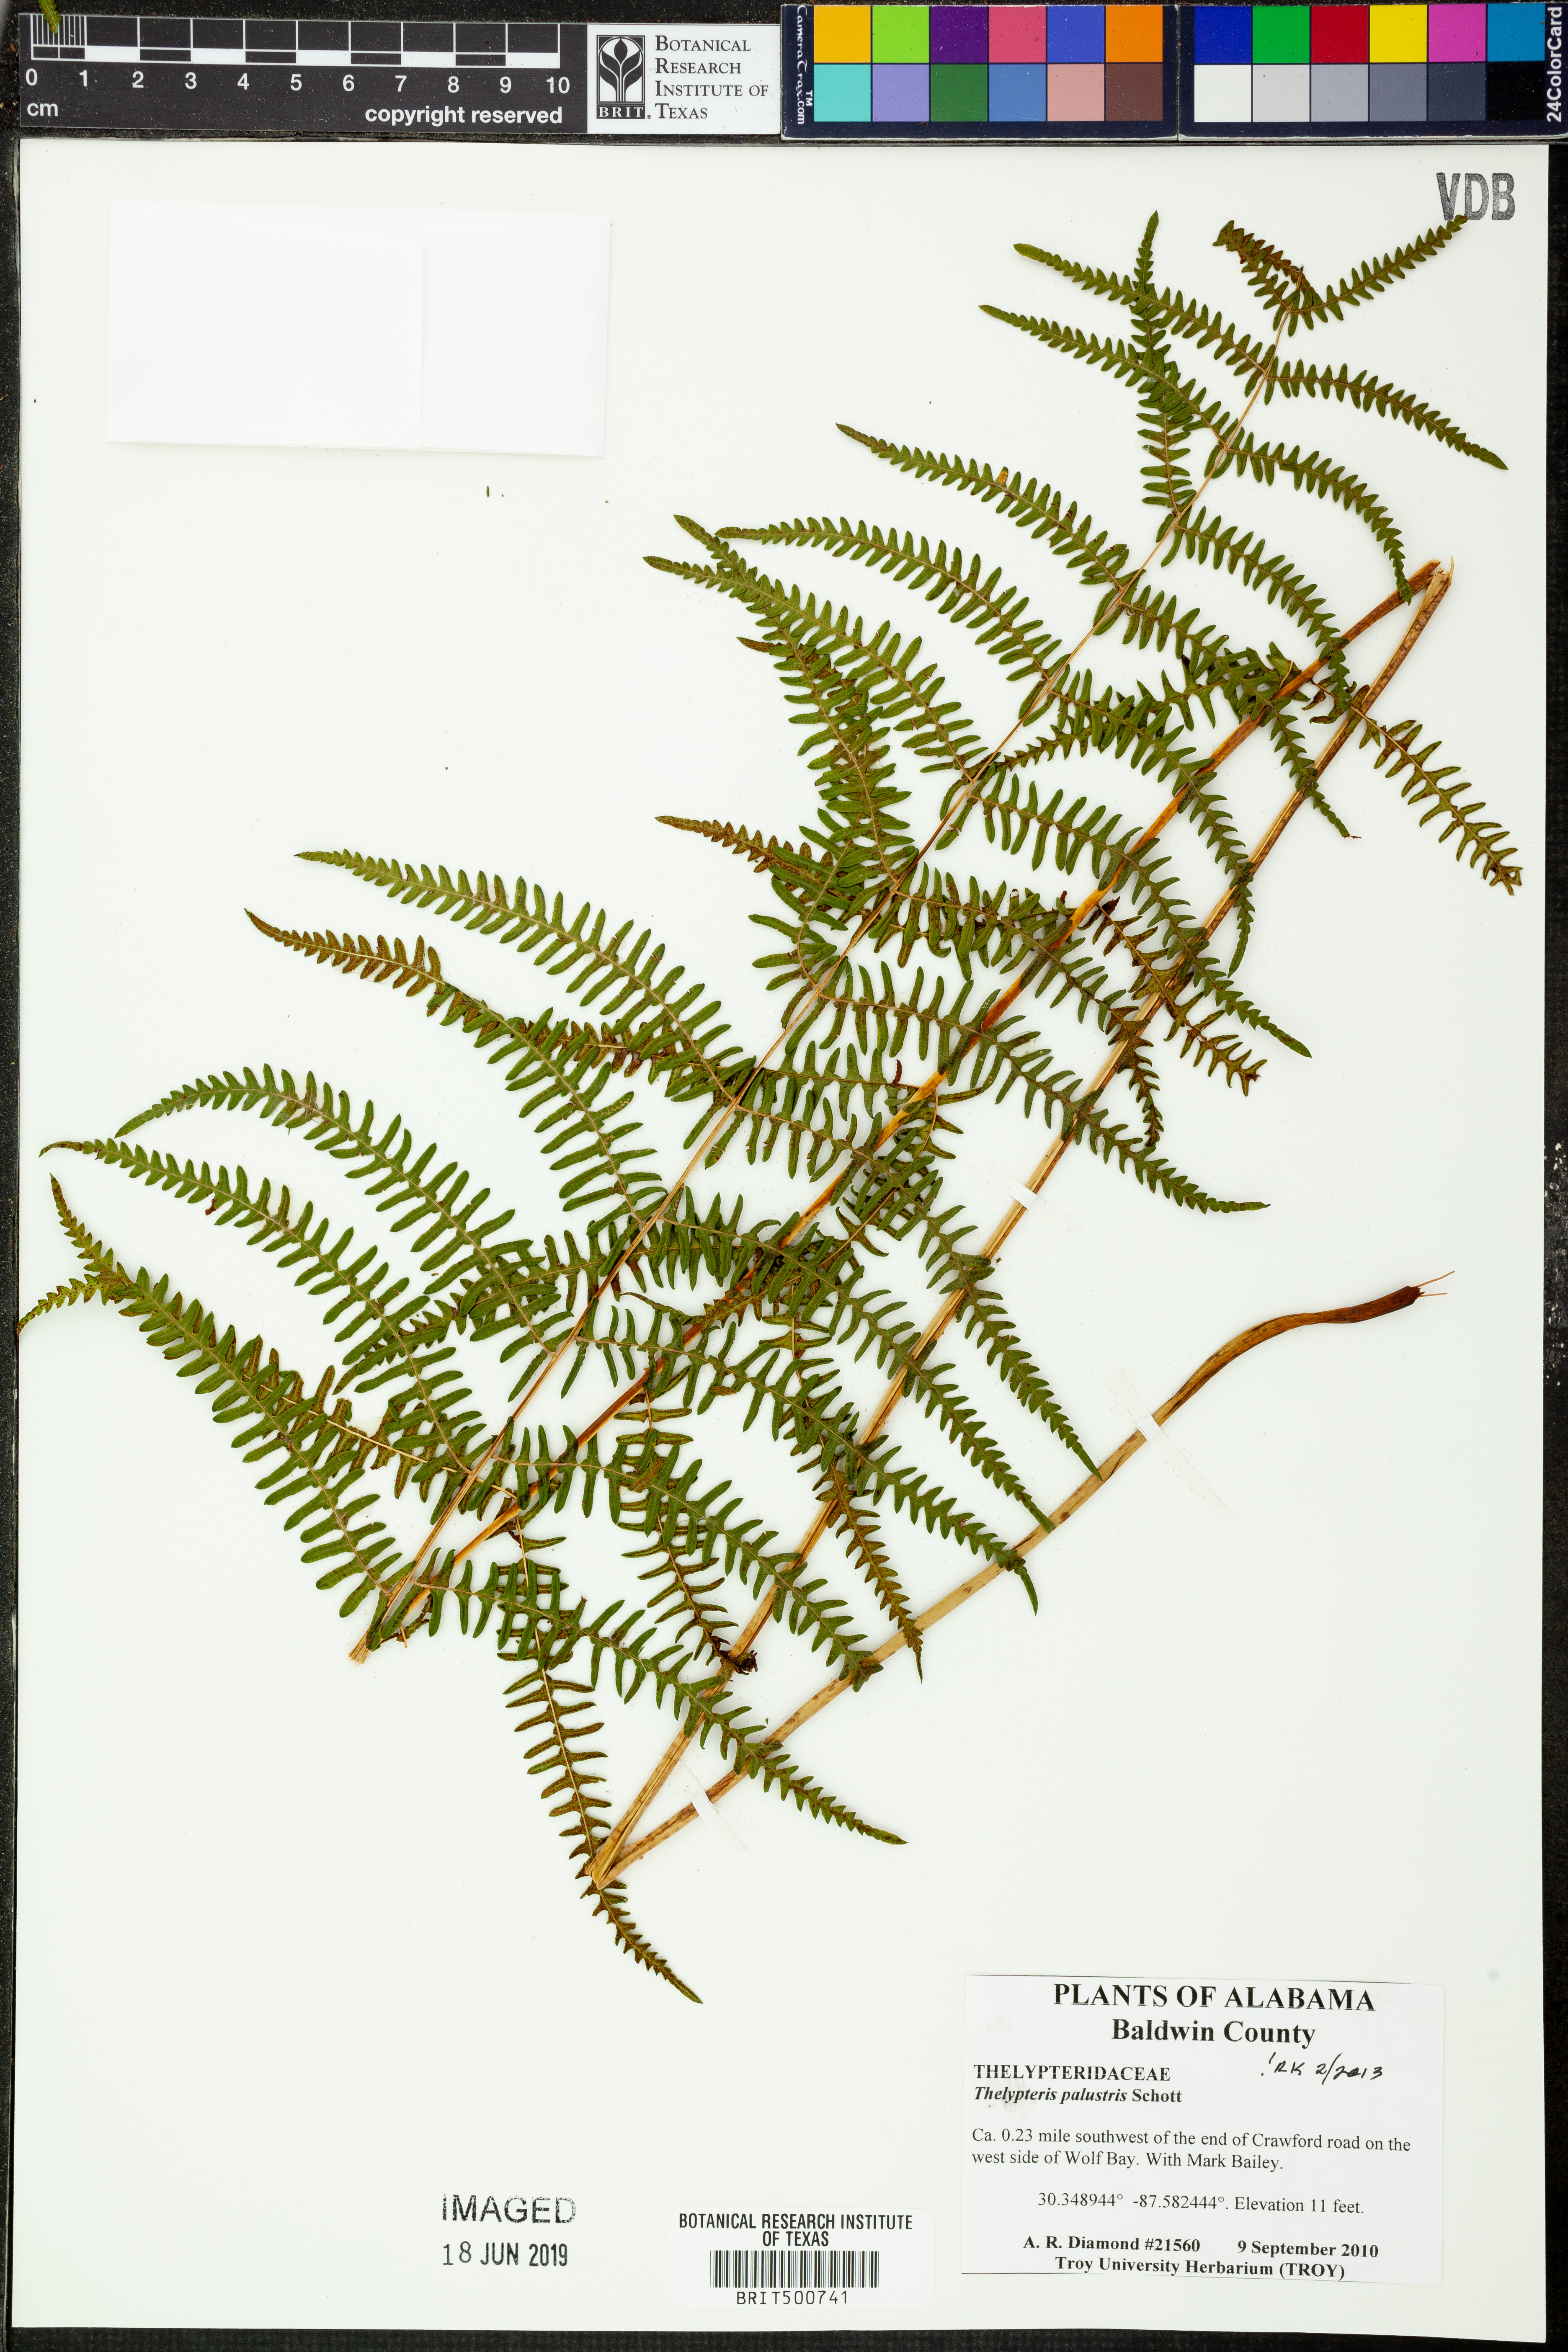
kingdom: Plantae
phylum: Tracheophyta
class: Polypodiopsida
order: Polypodiales
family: Thelypteridaceae
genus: Thelypteris
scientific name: Thelypteris palustris
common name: Marsh fern
